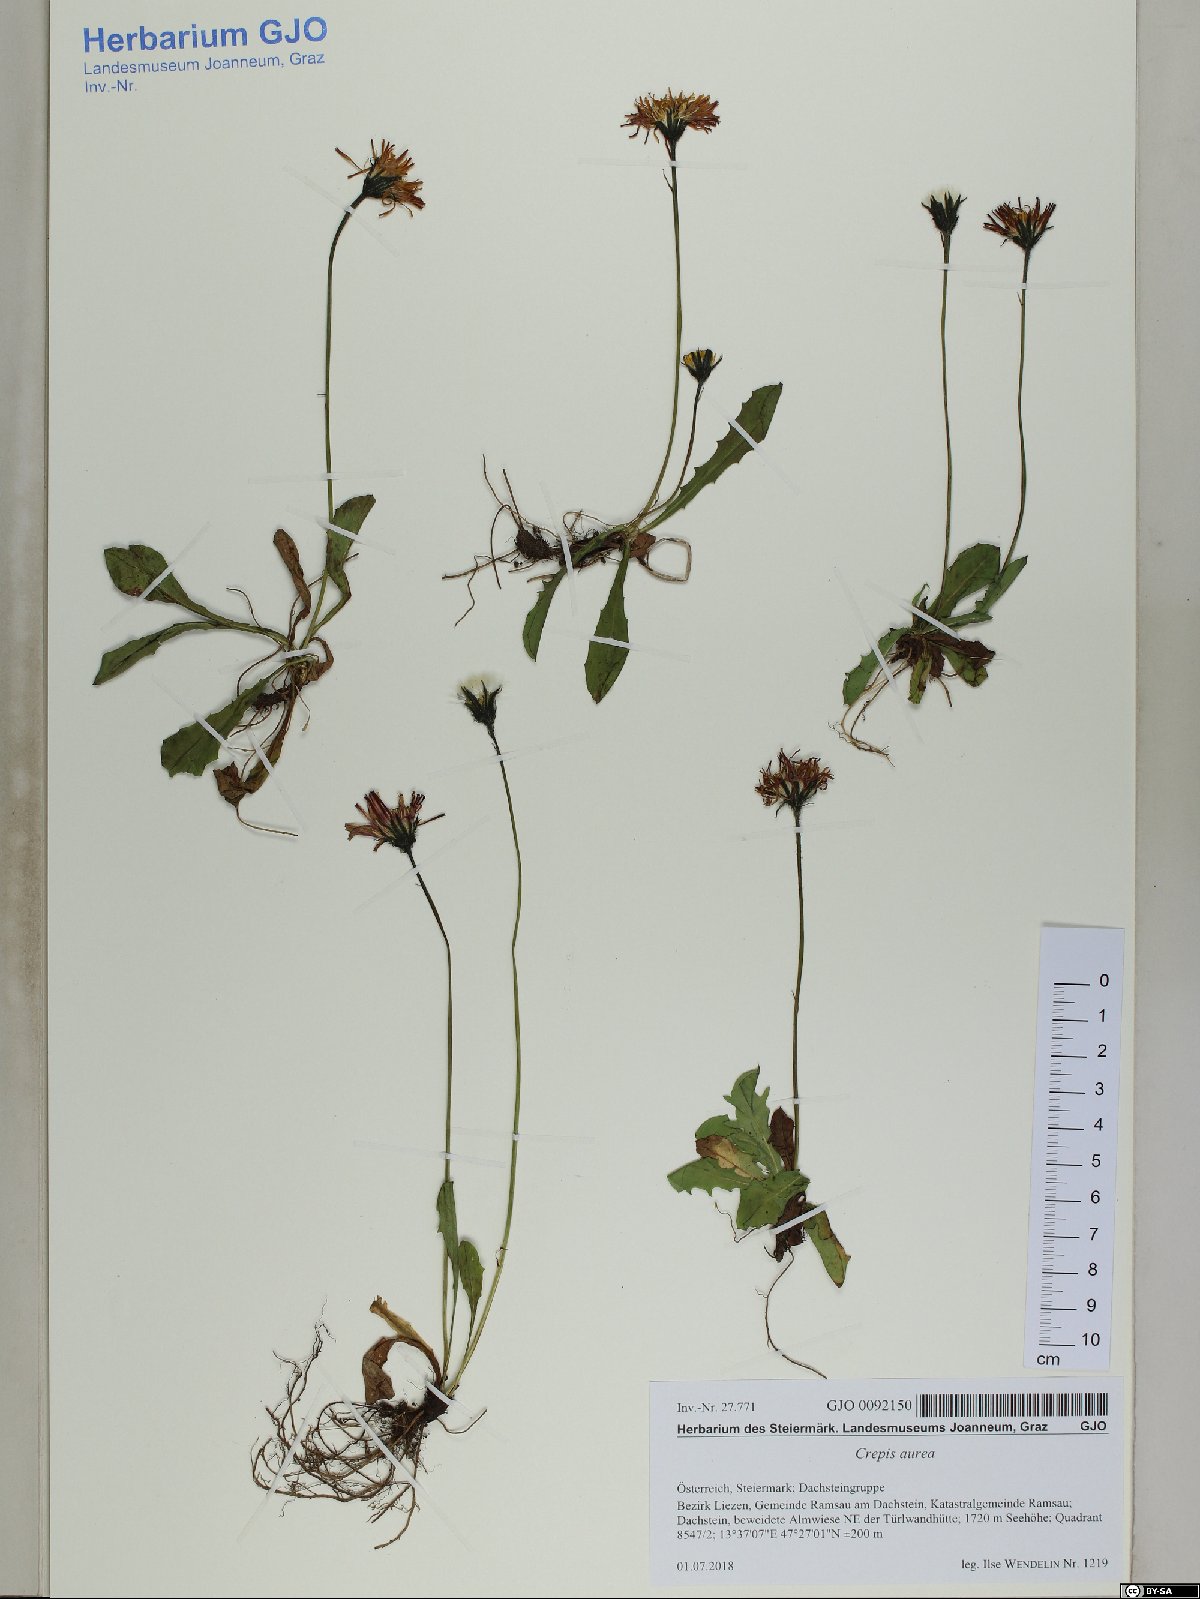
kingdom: Plantae
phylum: Tracheophyta
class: Magnoliopsida
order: Asterales
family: Asteraceae
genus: Crepis
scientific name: Crepis aurea
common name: Golden hawk's-beard
